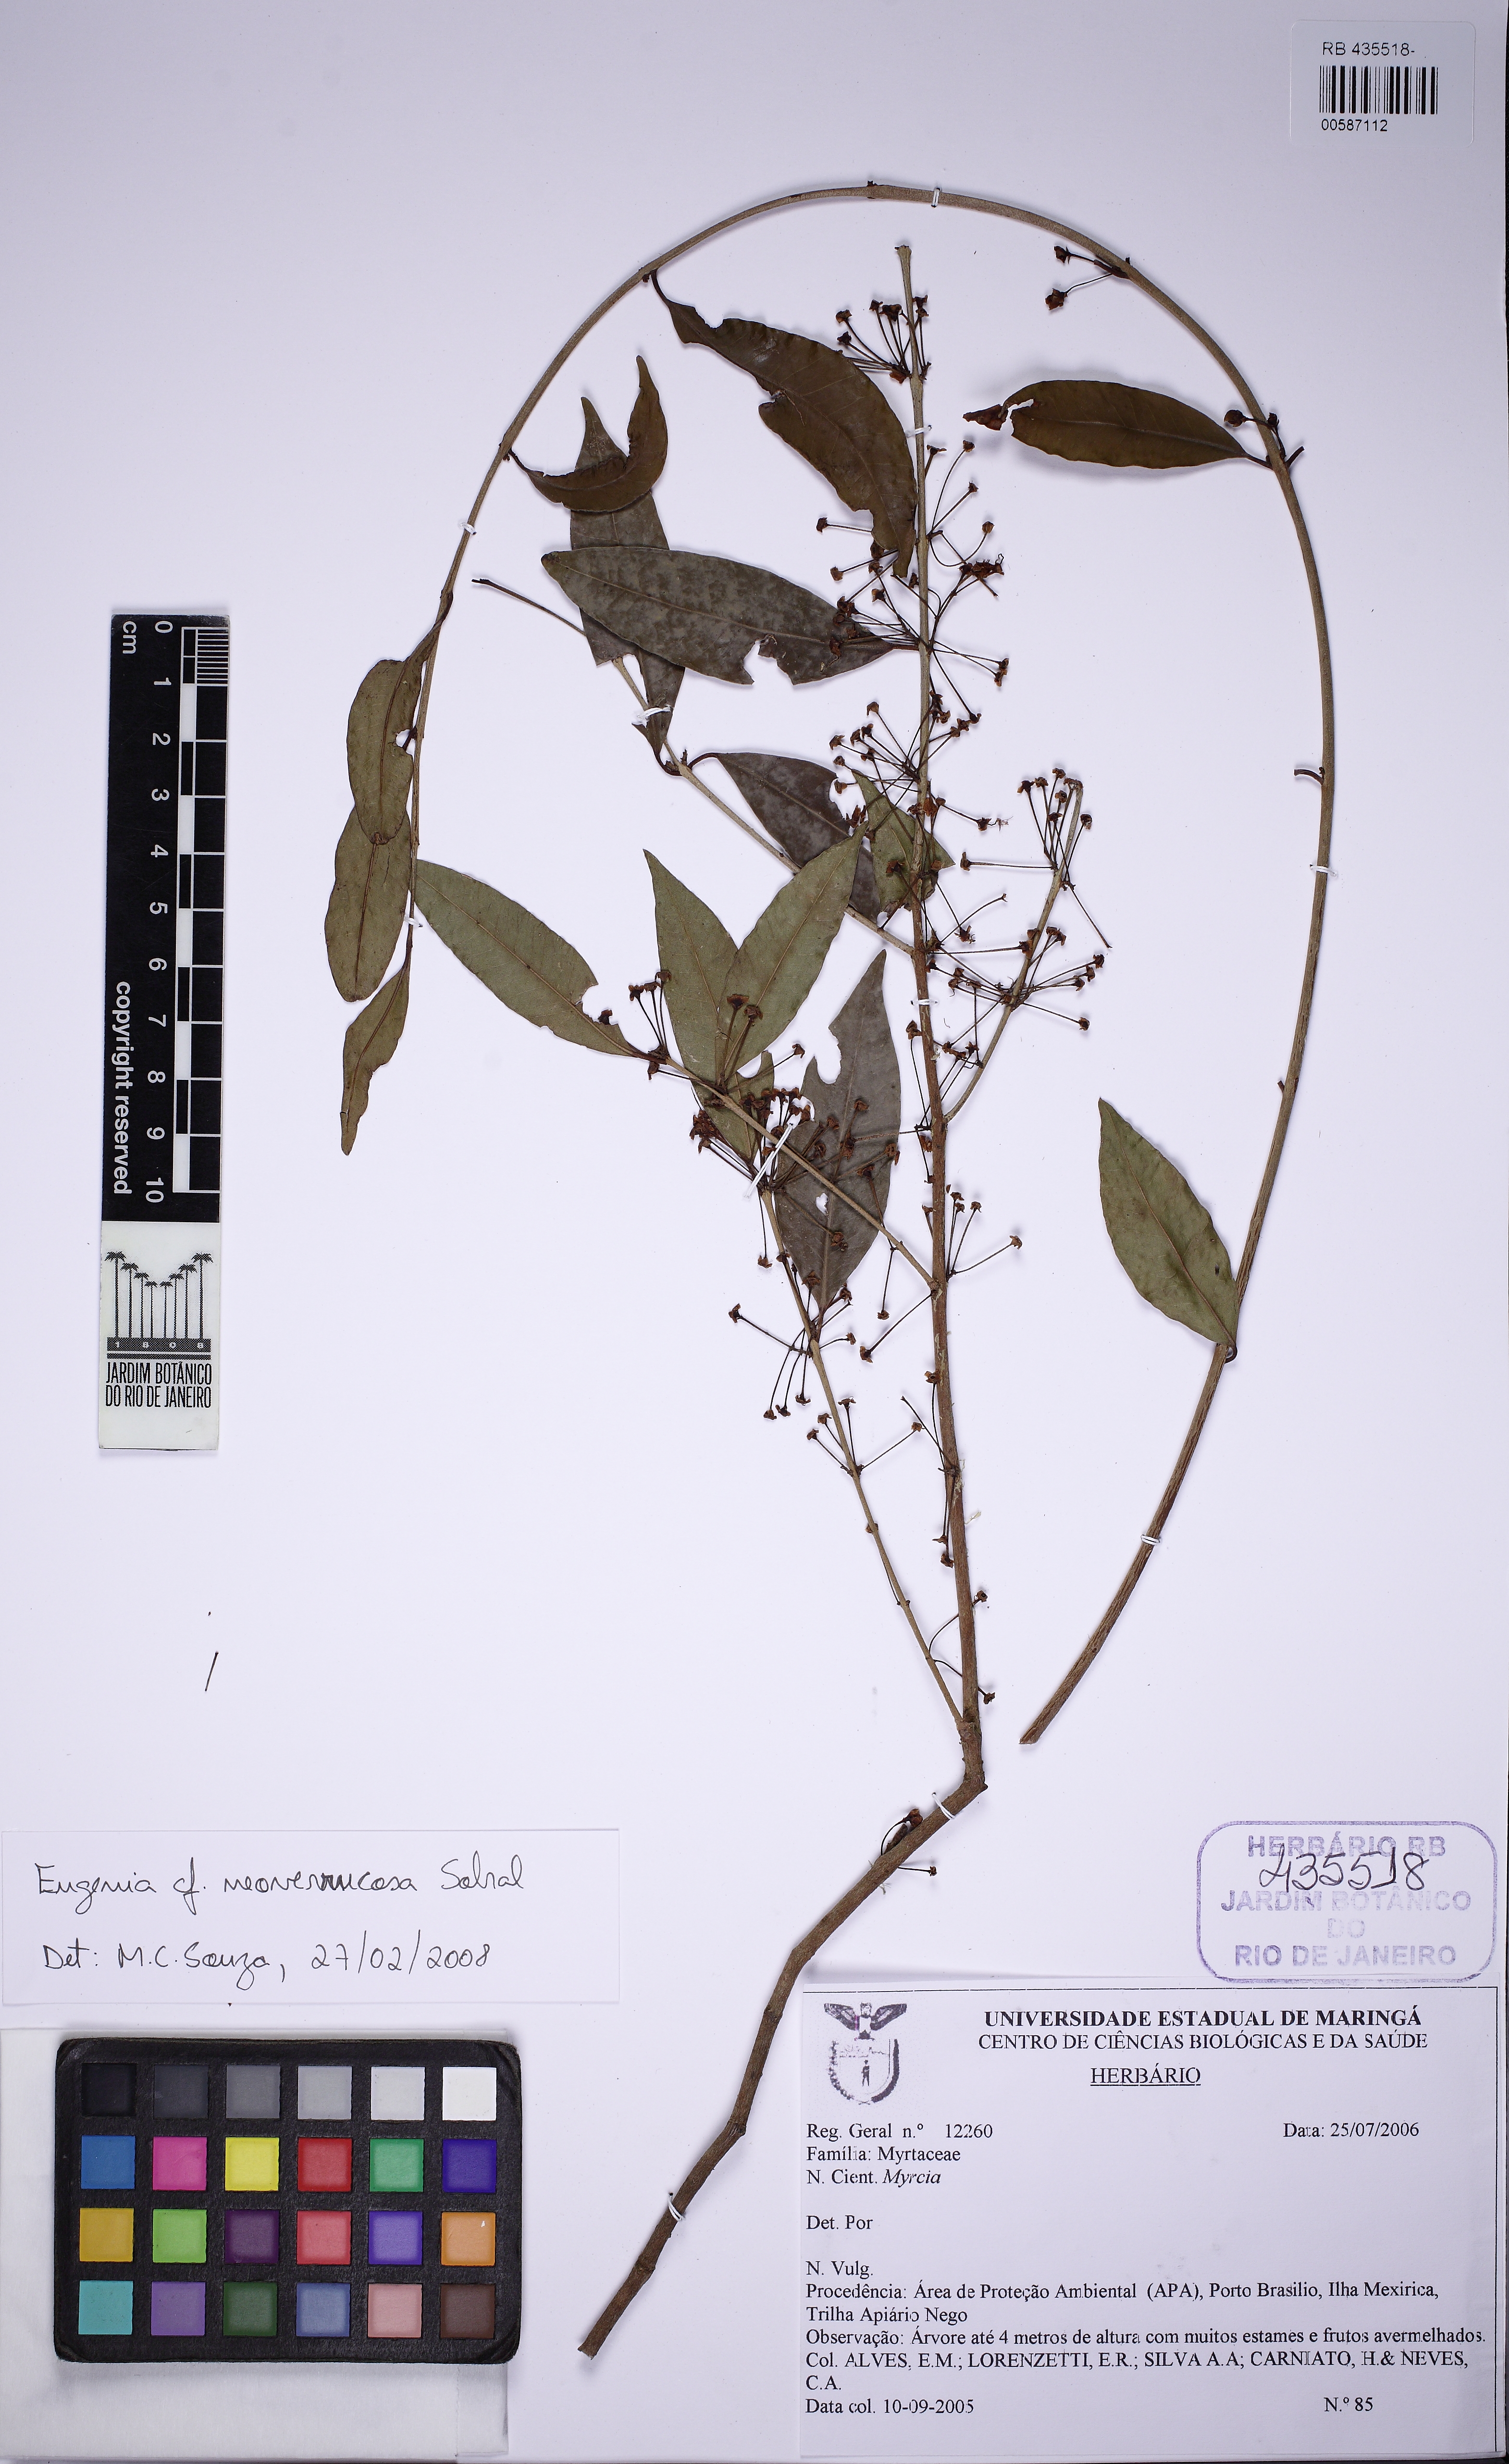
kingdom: Plantae
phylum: Tracheophyta
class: Magnoliopsida
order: Myrtales
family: Myrtaceae
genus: Eugenia
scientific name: Eugenia neoverrucosa
